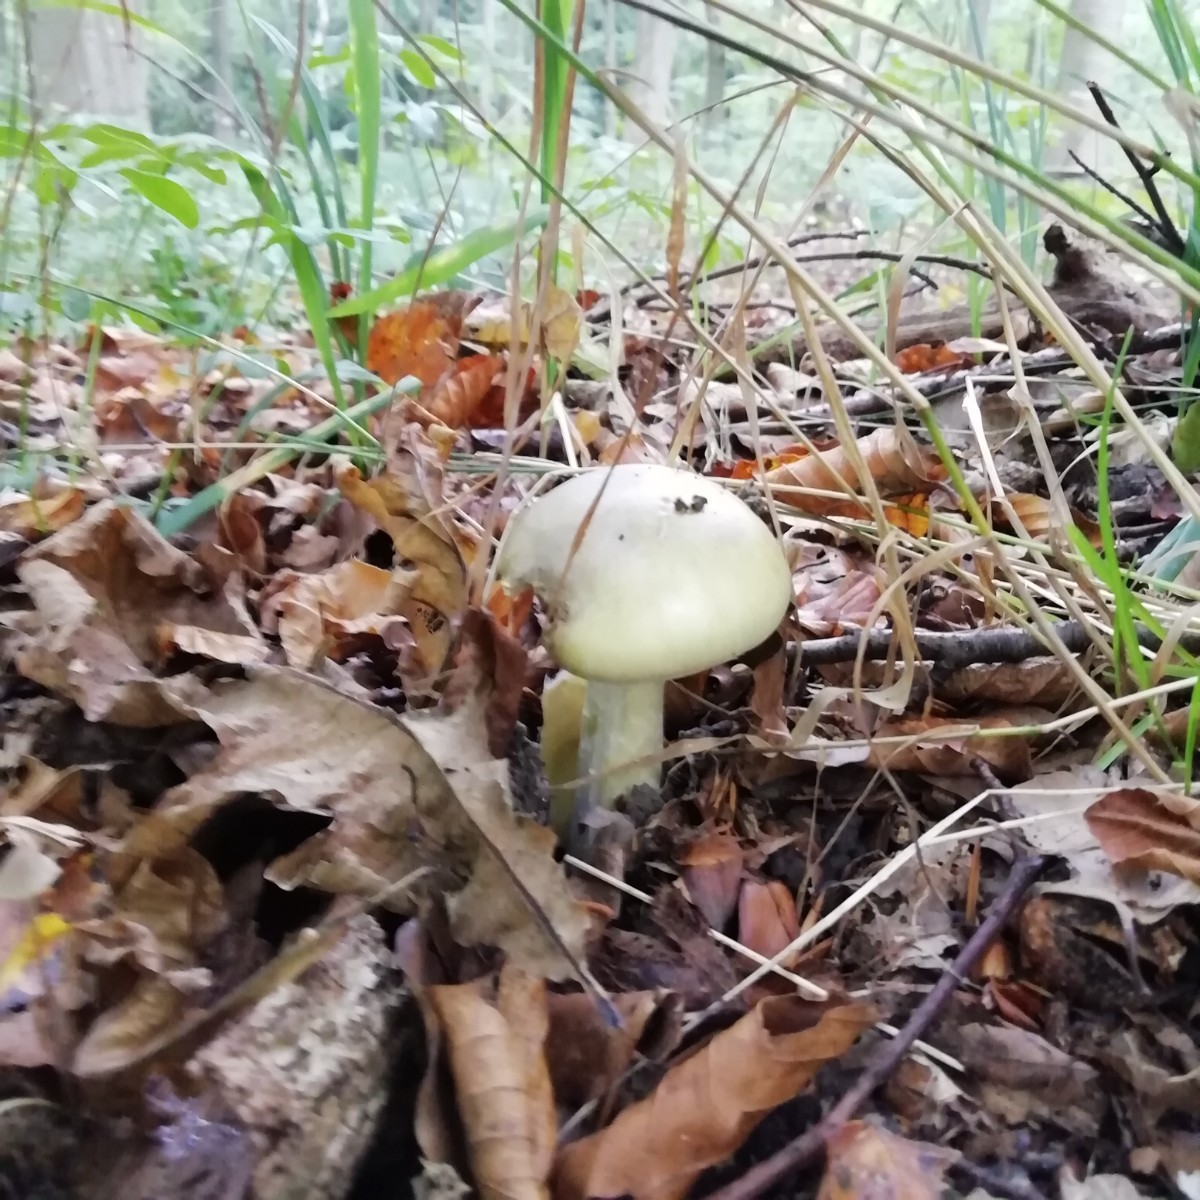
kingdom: Fungi
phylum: Basidiomycota
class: Agaricomycetes
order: Agaricales
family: Amanitaceae
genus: Amanita
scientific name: Amanita phalloides
